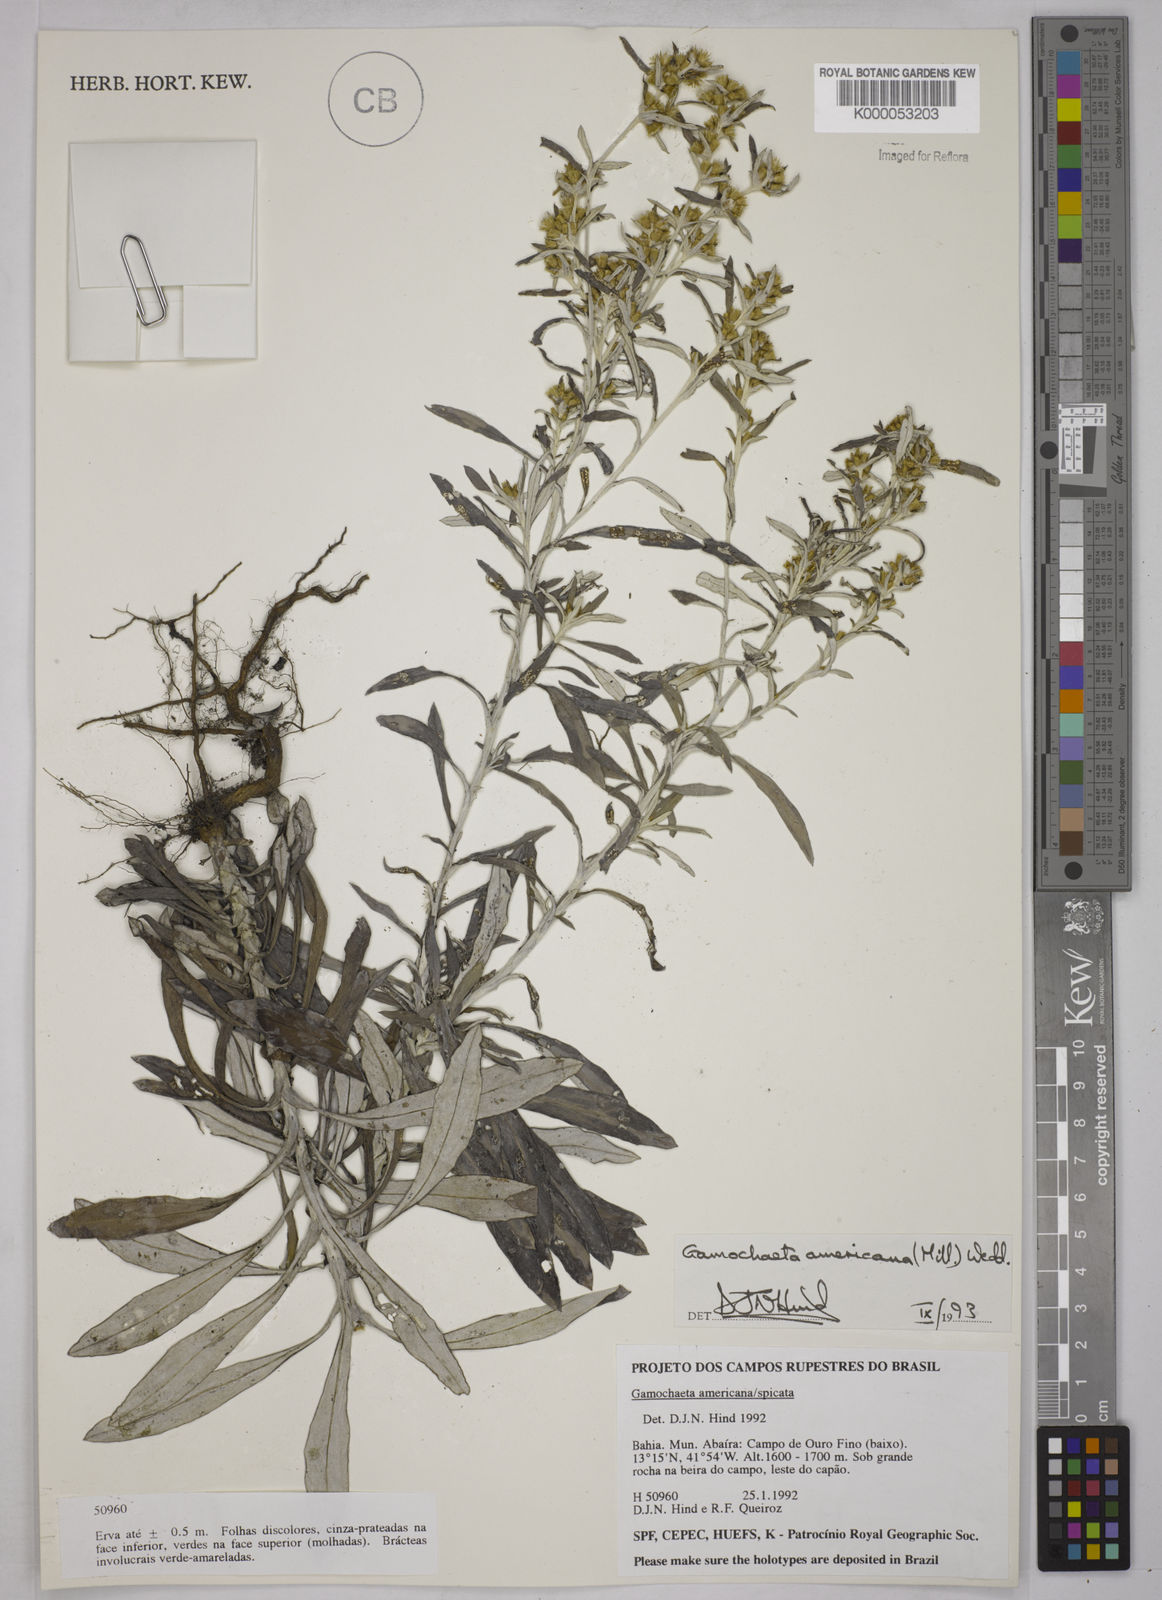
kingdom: Plantae
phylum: Tracheophyta
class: Magnoliopsida
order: Asterales
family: Asteraceae
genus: Gamochaeta
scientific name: Gamochaeta americana
